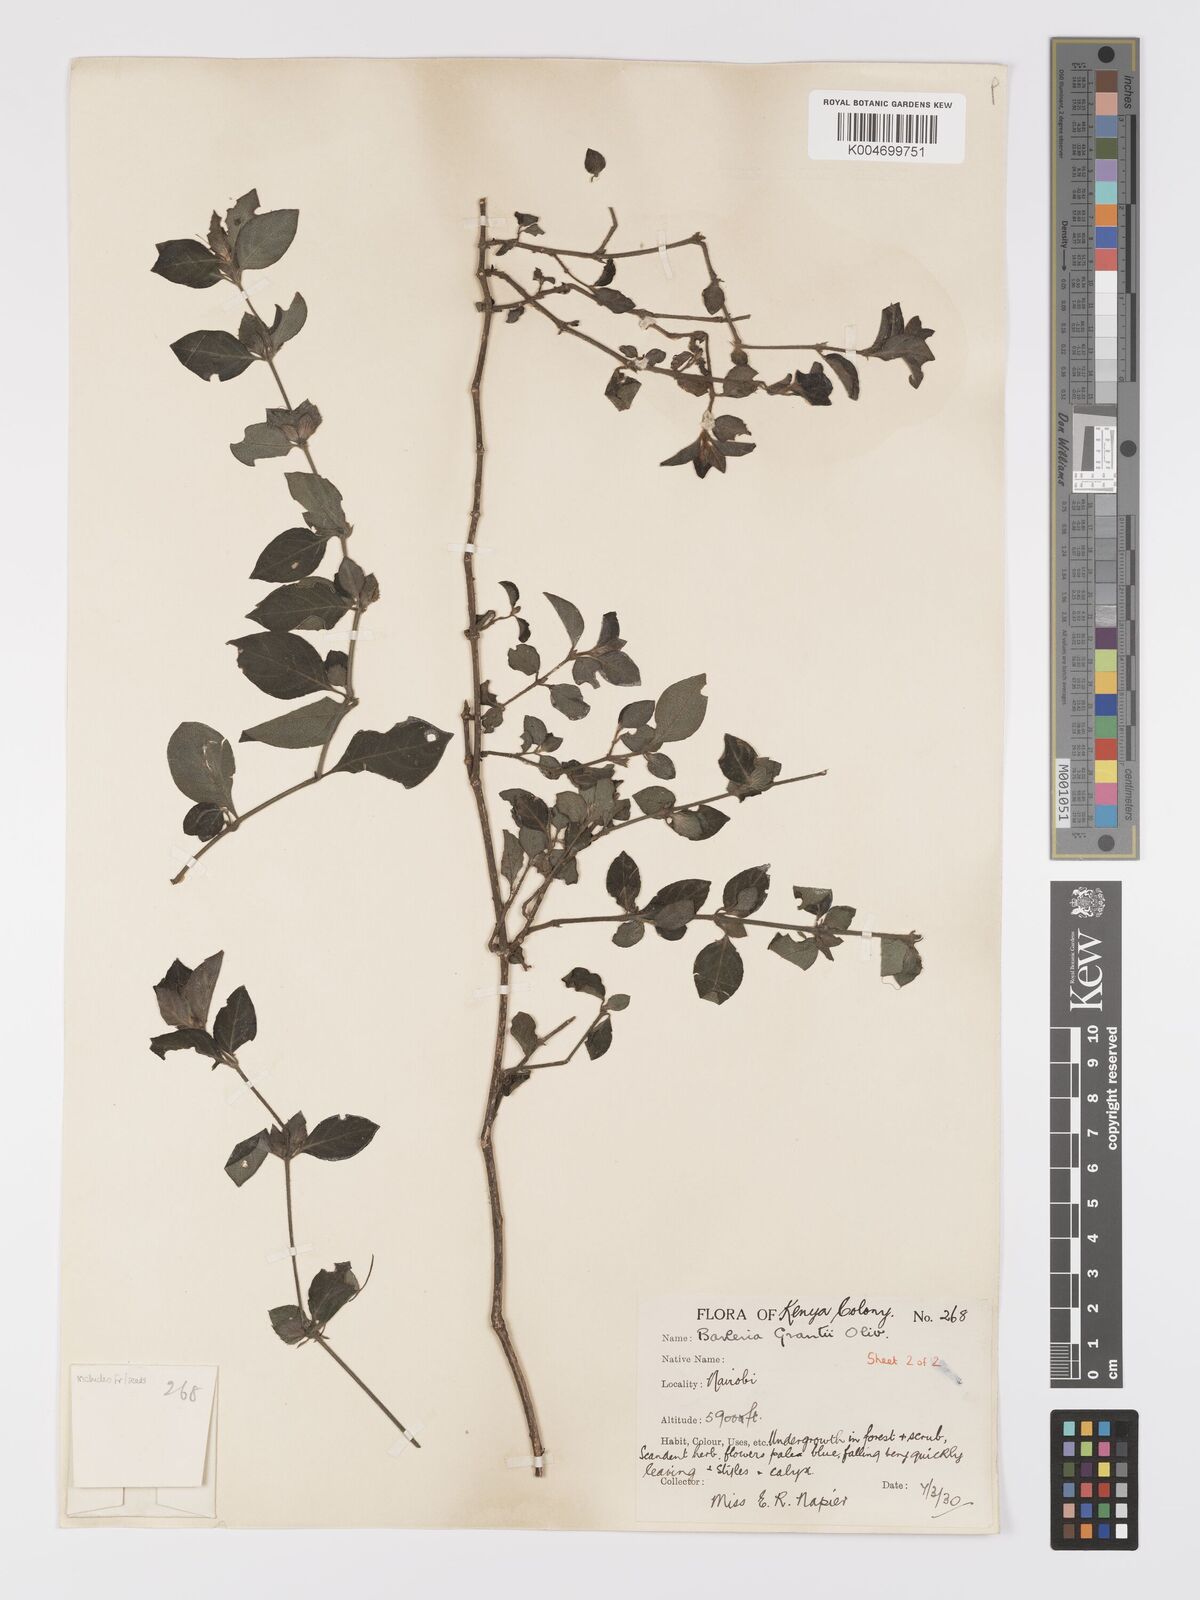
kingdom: Plantae
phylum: Tracheophyta
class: Magnoliopsida
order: Lamiales
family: Acanthaceae
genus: Barleria
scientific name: Barleria ventricosa
